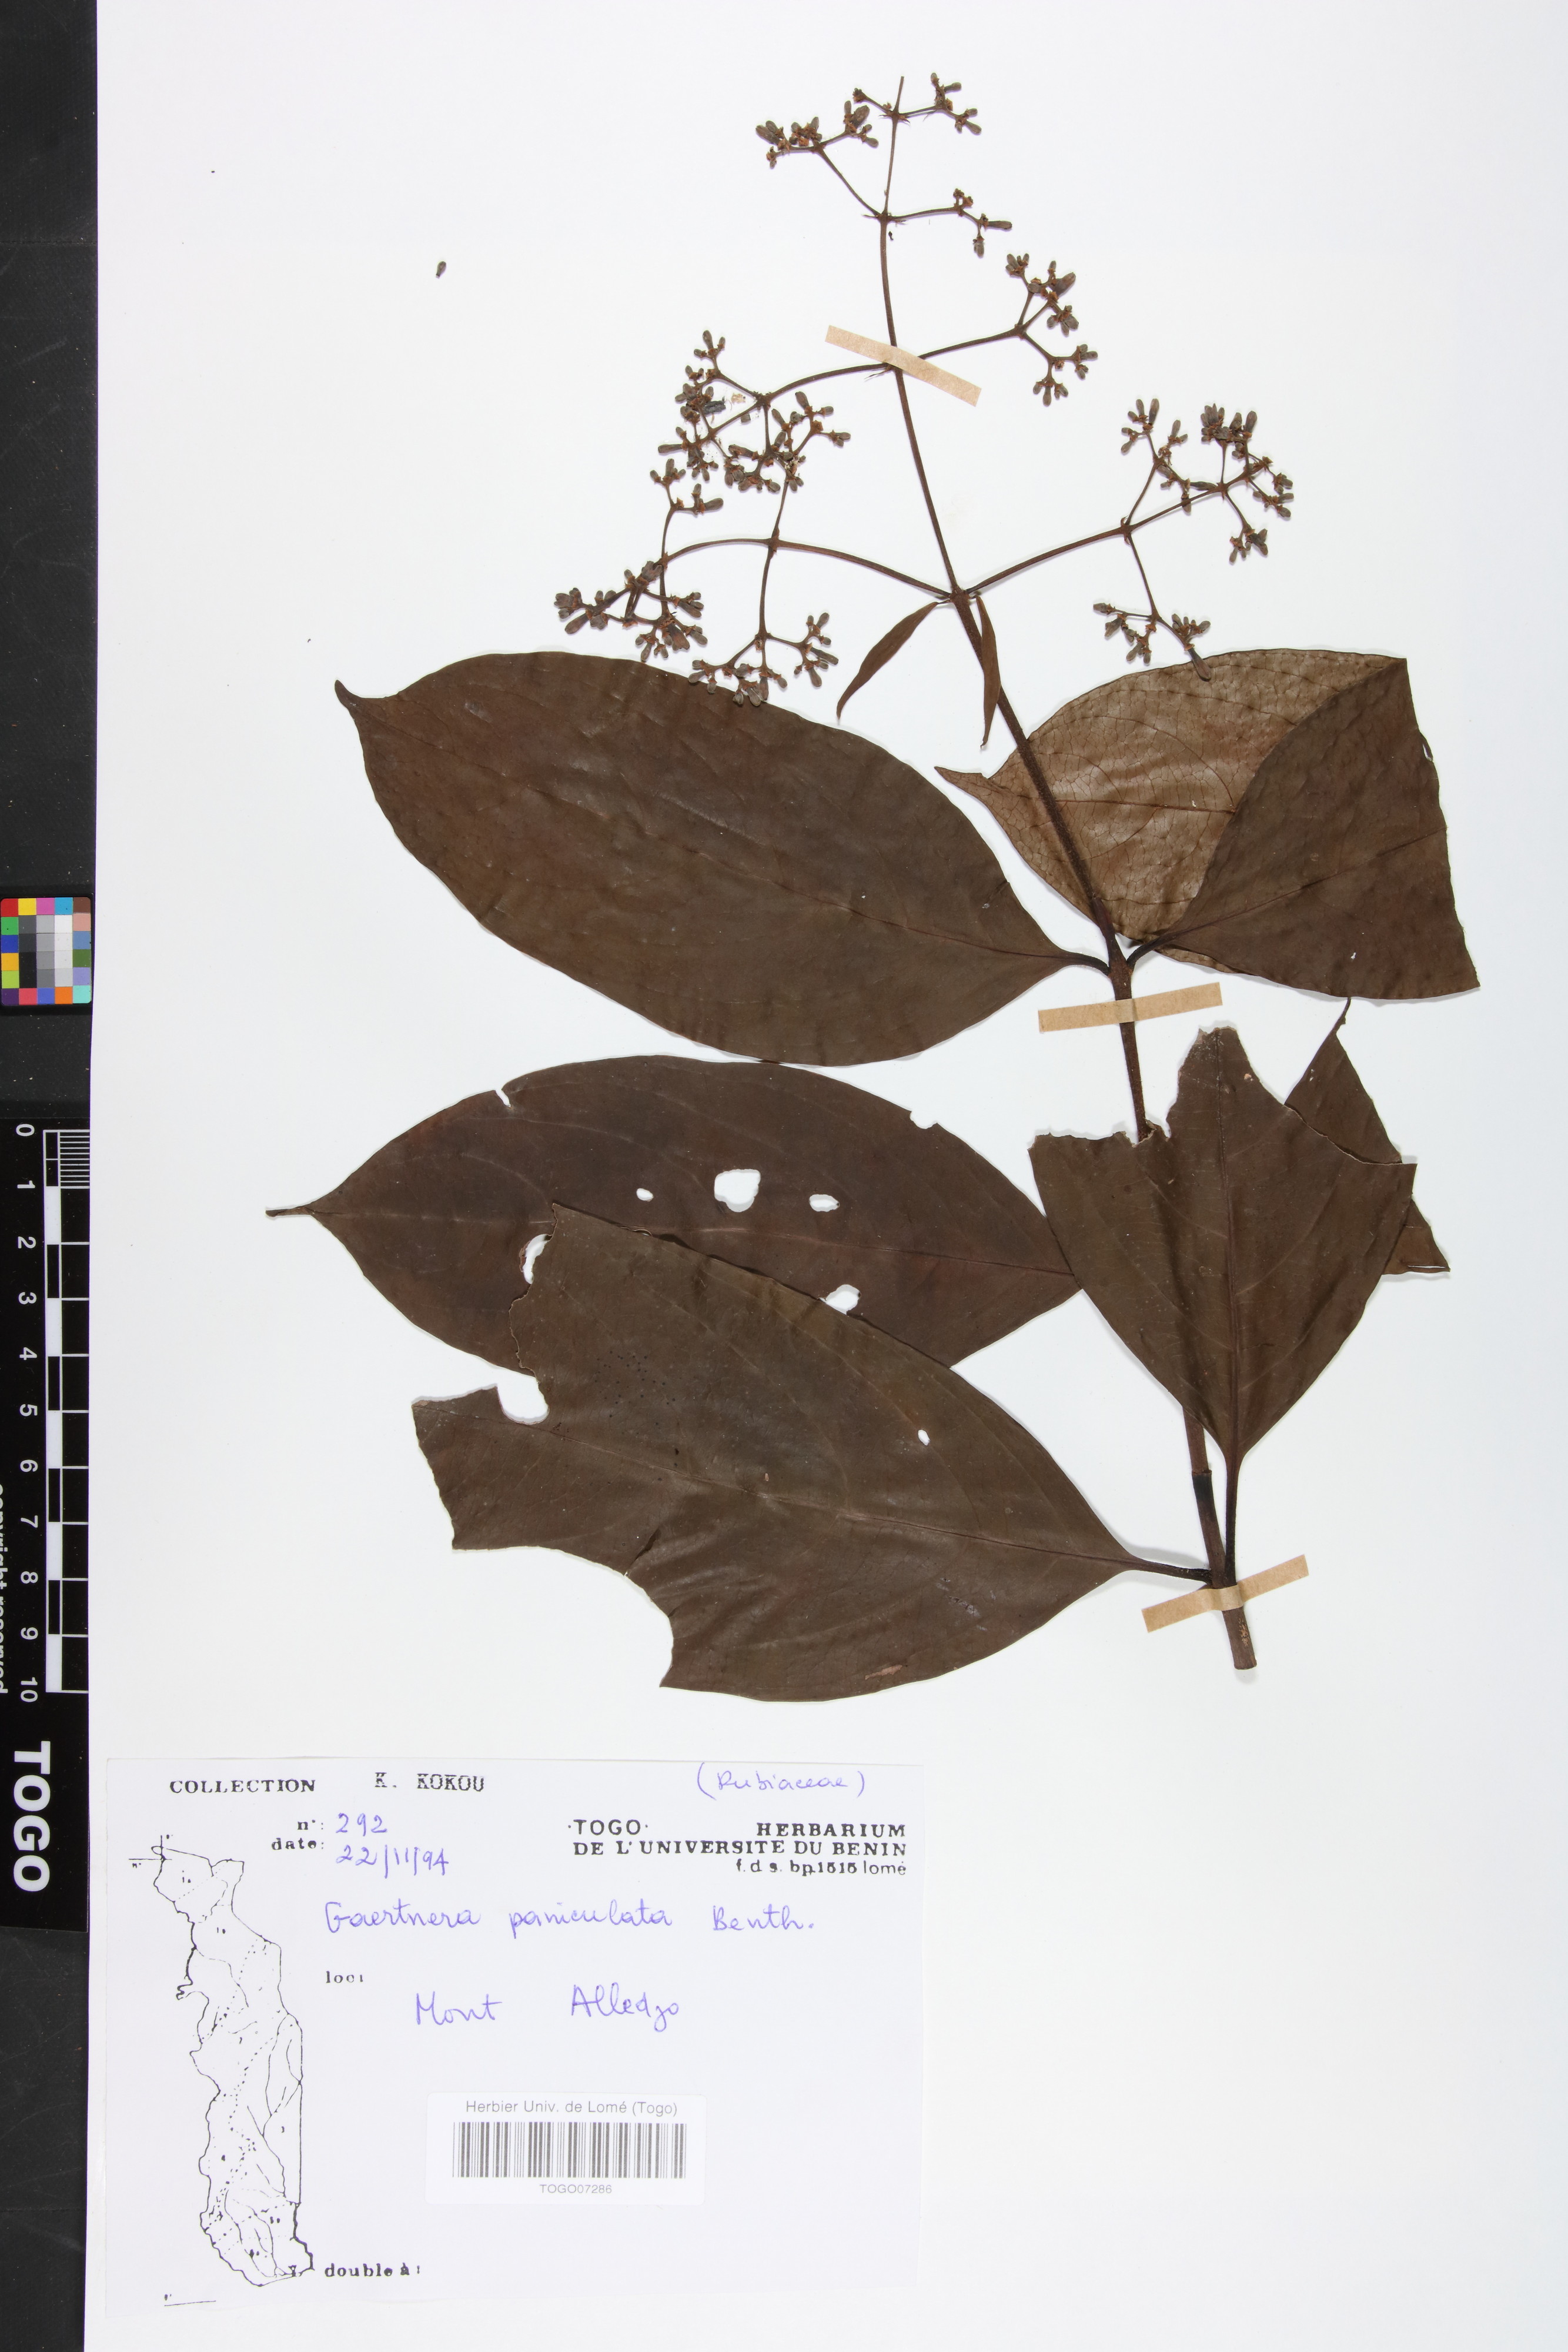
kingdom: Plantae
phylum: Tracheophyta
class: Magnoliopsida
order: Gentianales
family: Rubiaceae
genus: Gaertnera
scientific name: Gaertnera paniculata
